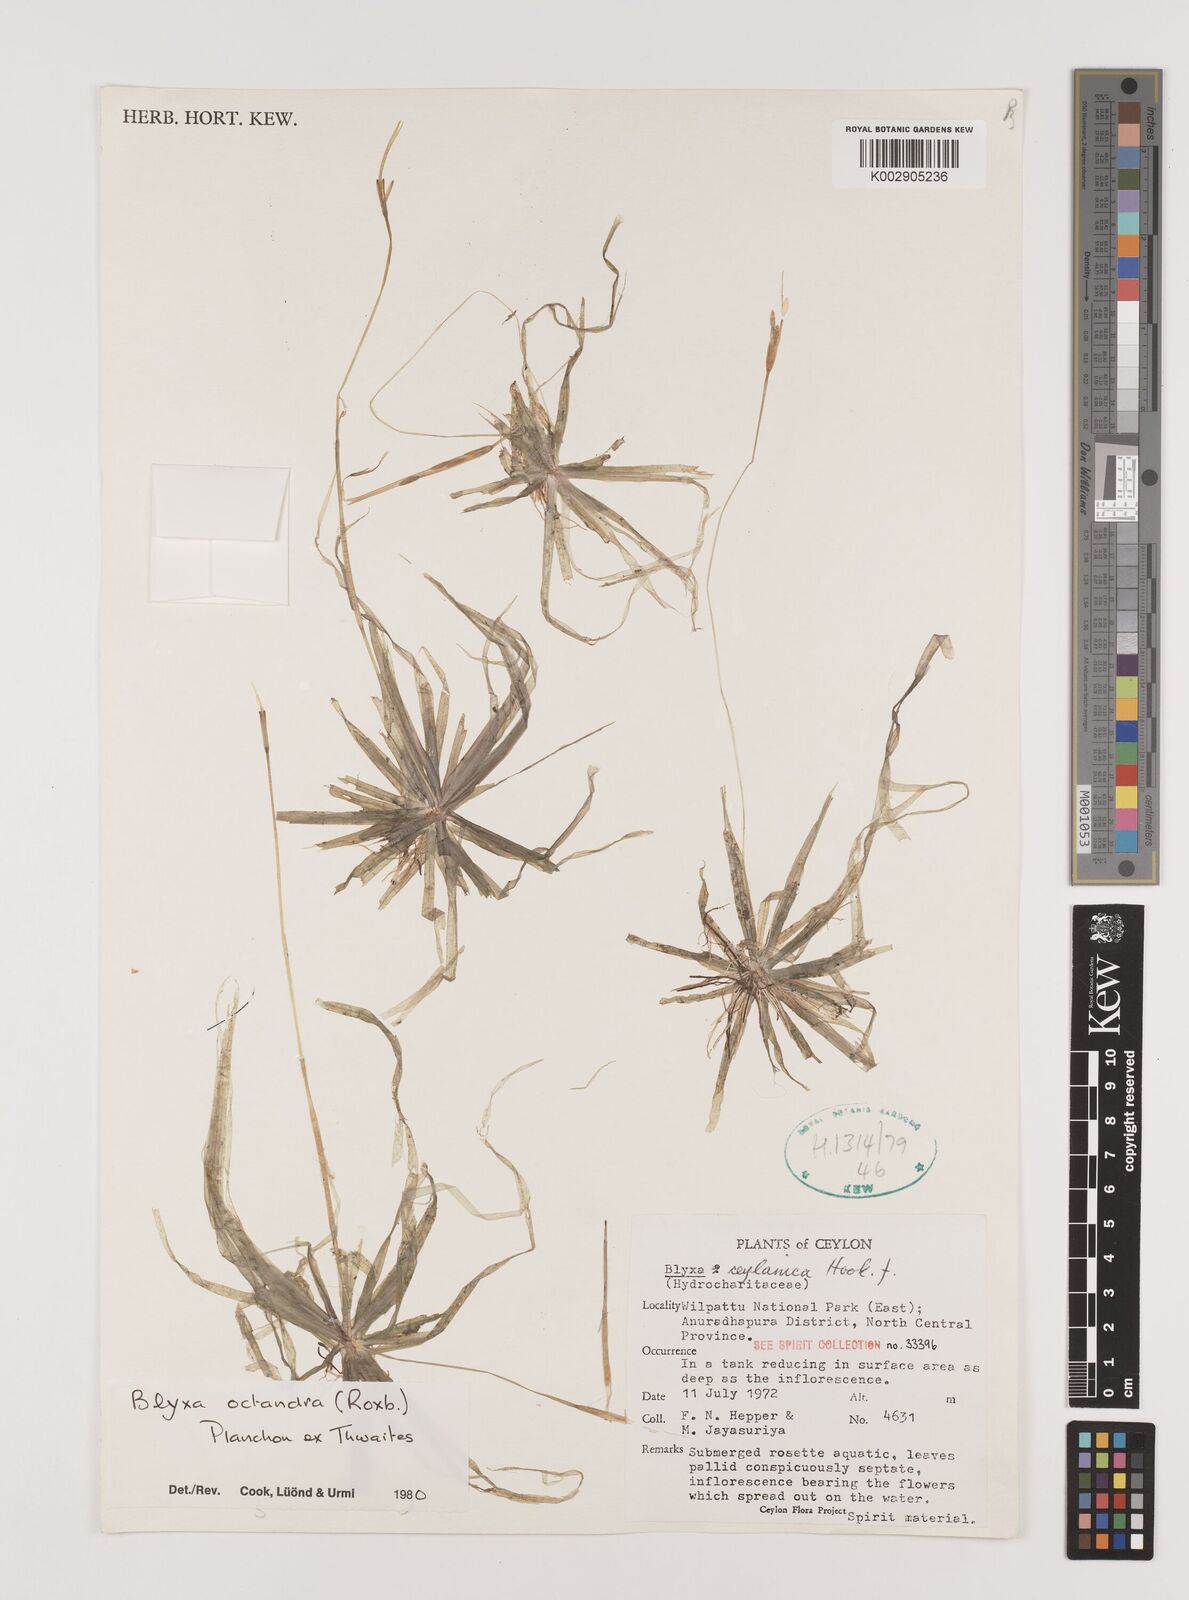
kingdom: Plantae
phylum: Tracheophyta
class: Liliopsida
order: Alismatales
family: Hydrocharitaceae
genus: Blyxa
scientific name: Blyxa octandra
